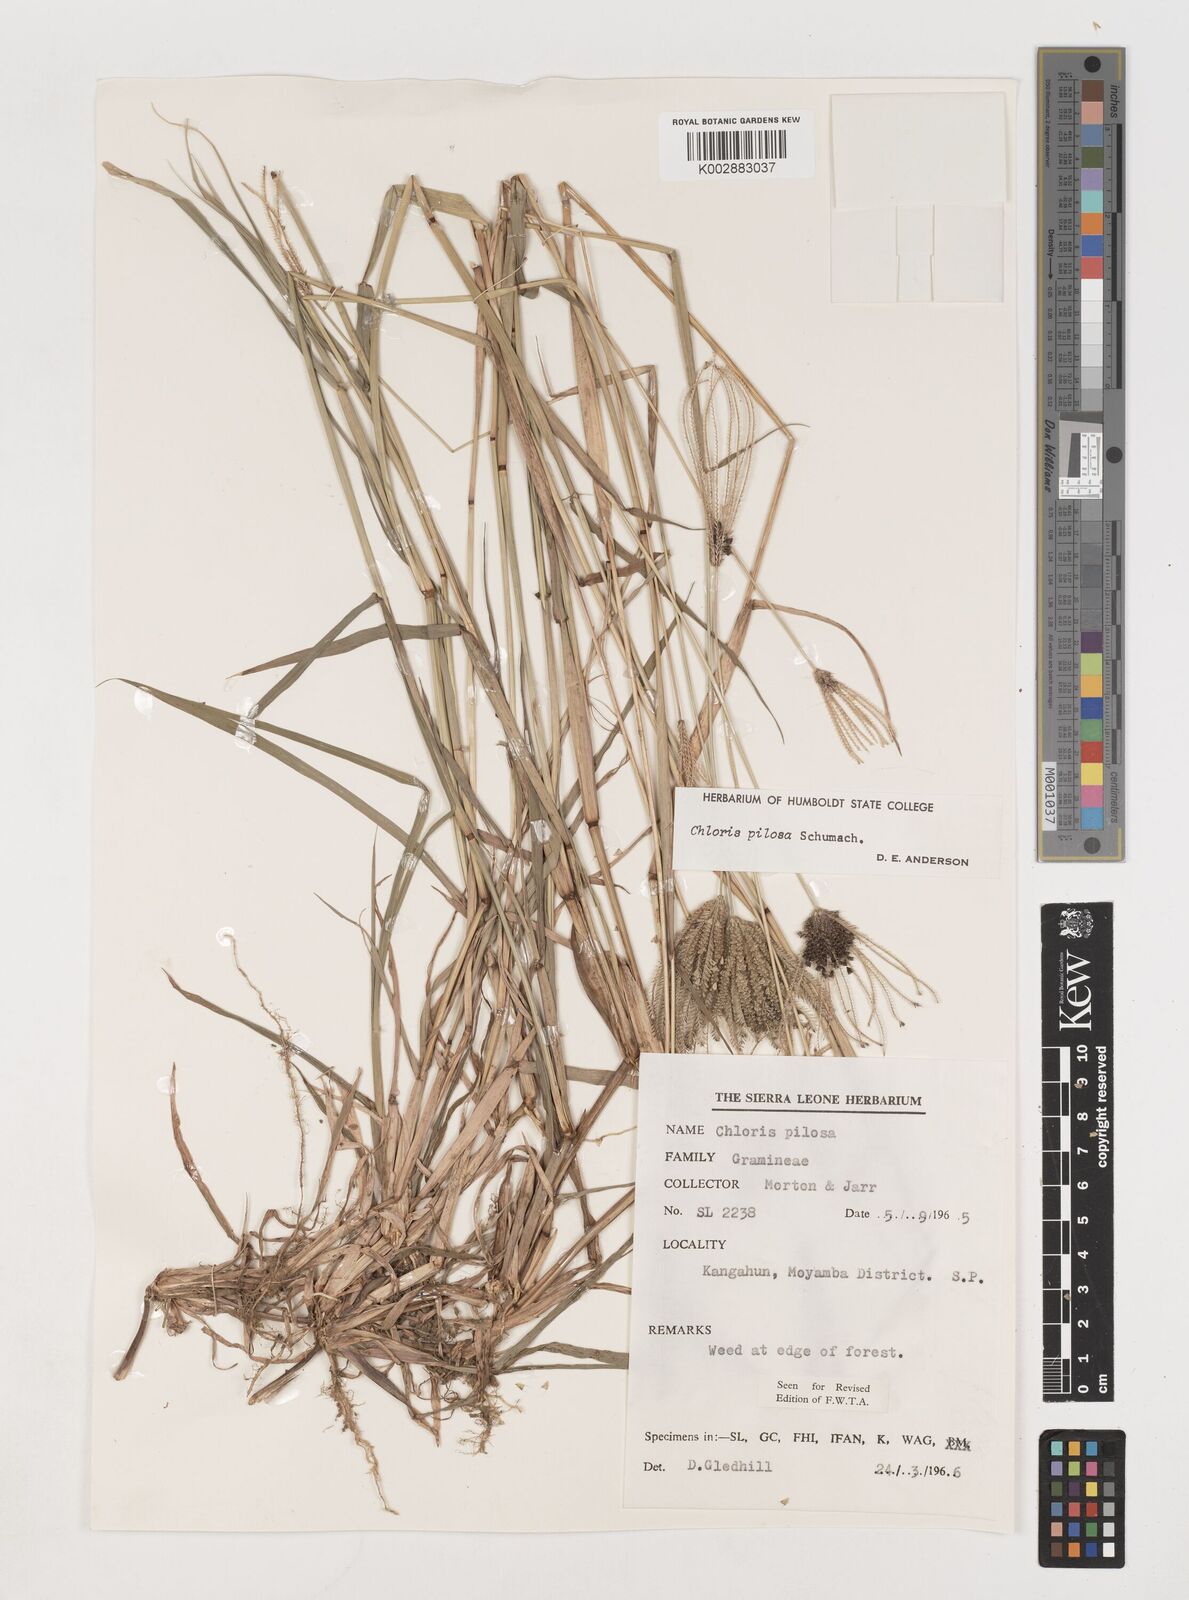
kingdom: Plantae
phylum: Tracheophyta
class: Liliopsida
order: Poales
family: Poaceae
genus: Chloris
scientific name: Chloris pilosa
